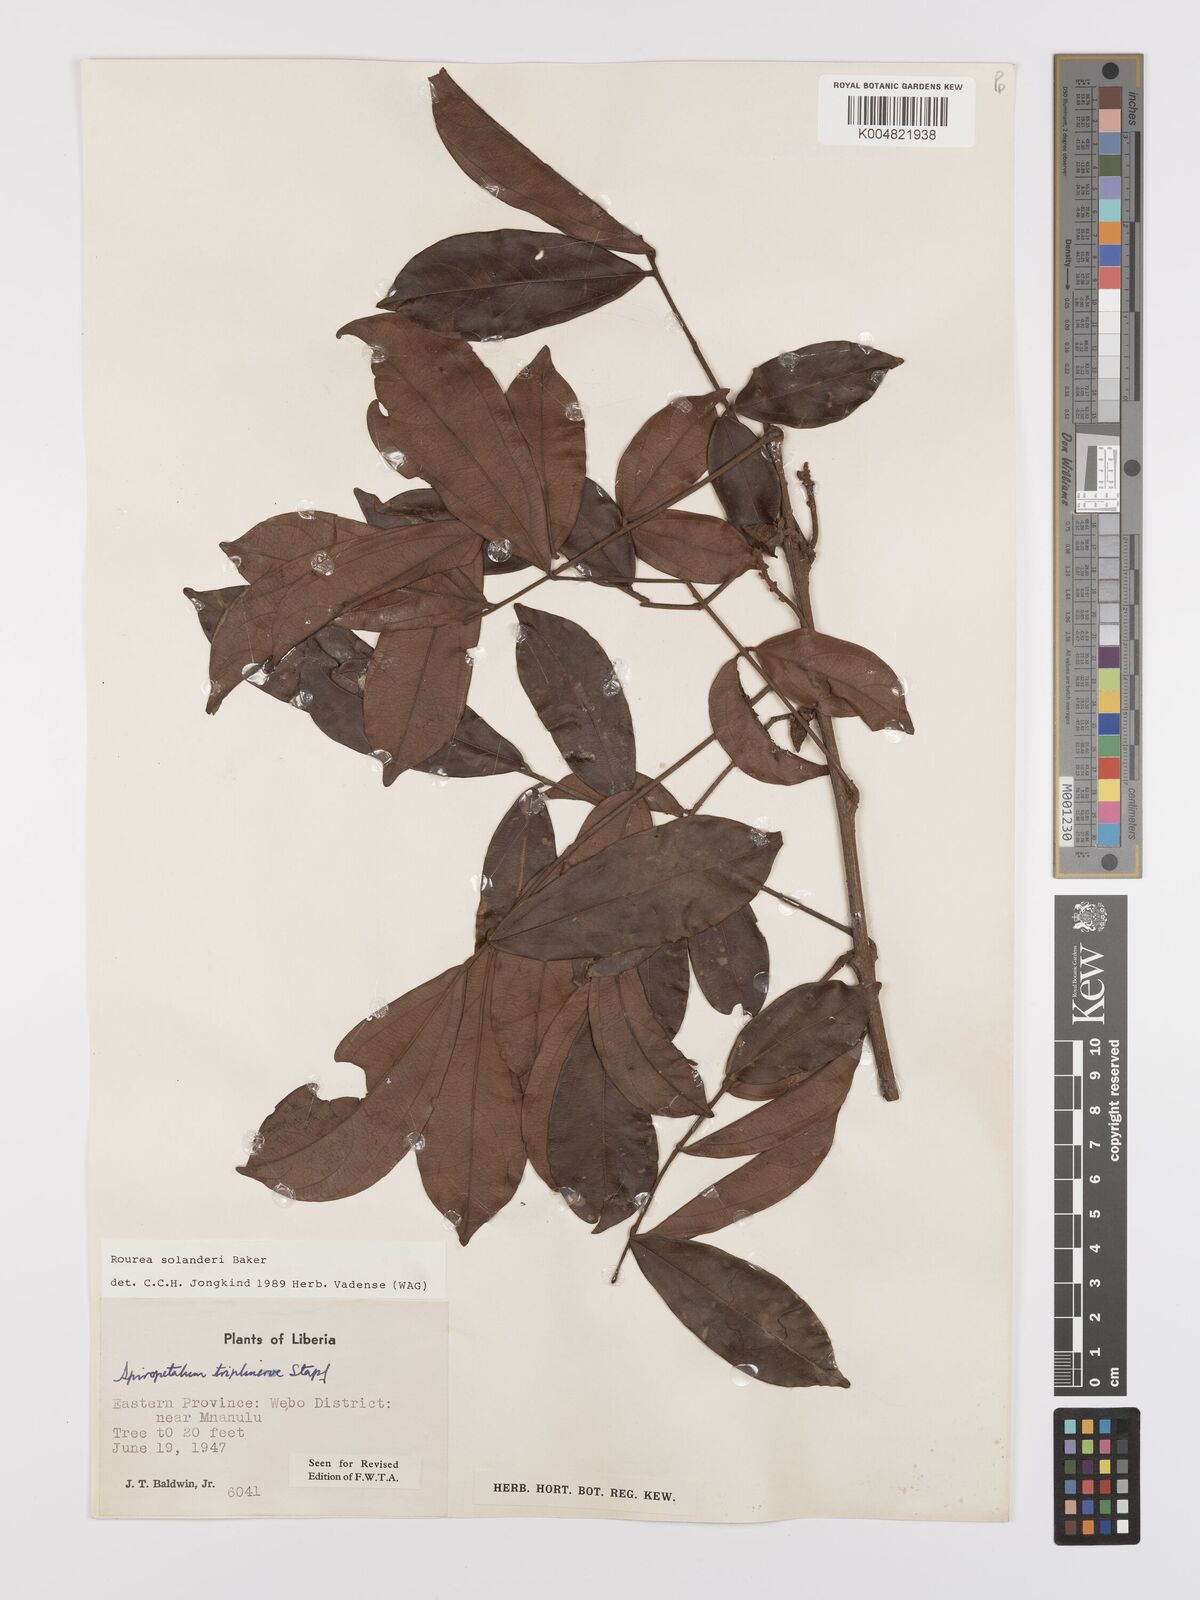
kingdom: Plantae
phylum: Tracheophyta
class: Magnoliopsida
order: Oxalidales
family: Connaraceae
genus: Rourea
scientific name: Rourea solanderi
